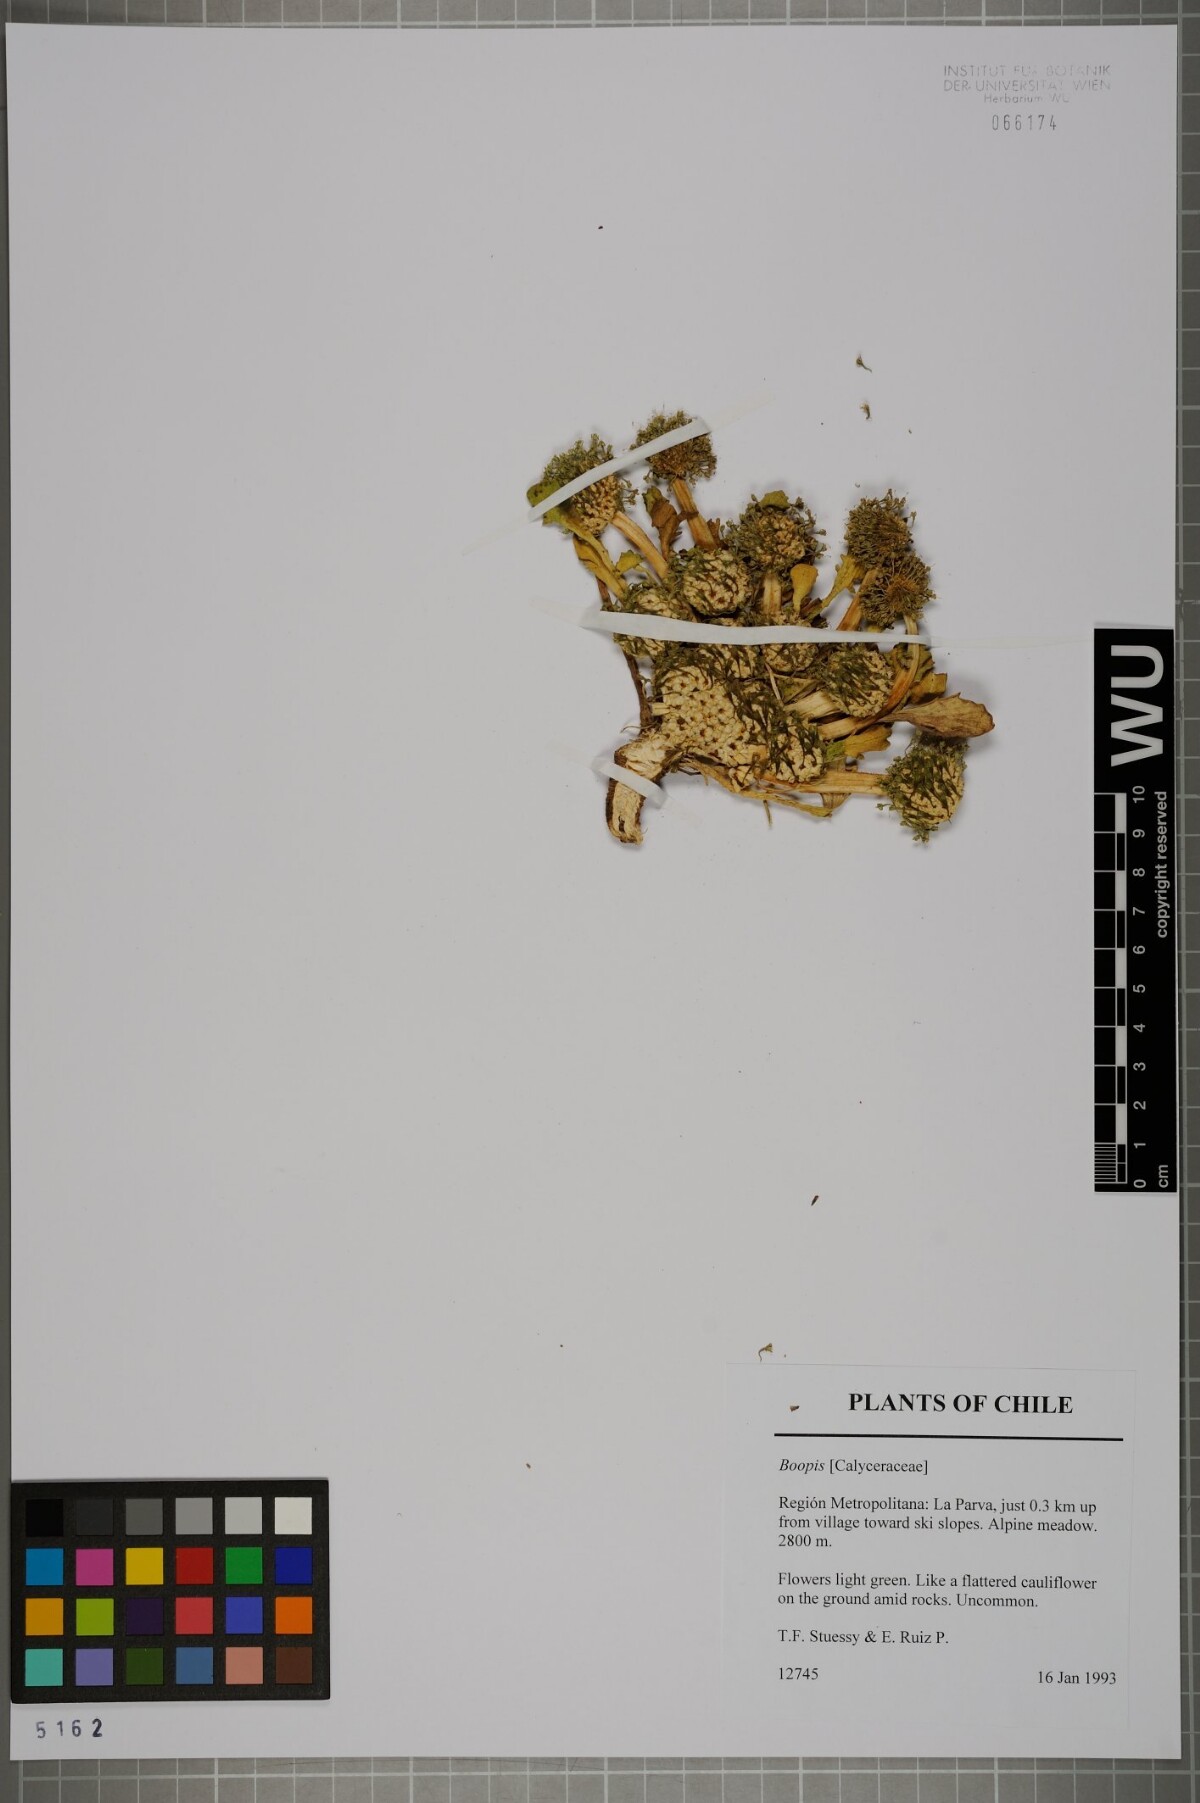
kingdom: Plantae
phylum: Tracheophyta
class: Magnoliopsida
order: Asterales
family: Calyceraceae
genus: Gamocarpha
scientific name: Gamocarpha scapigera
